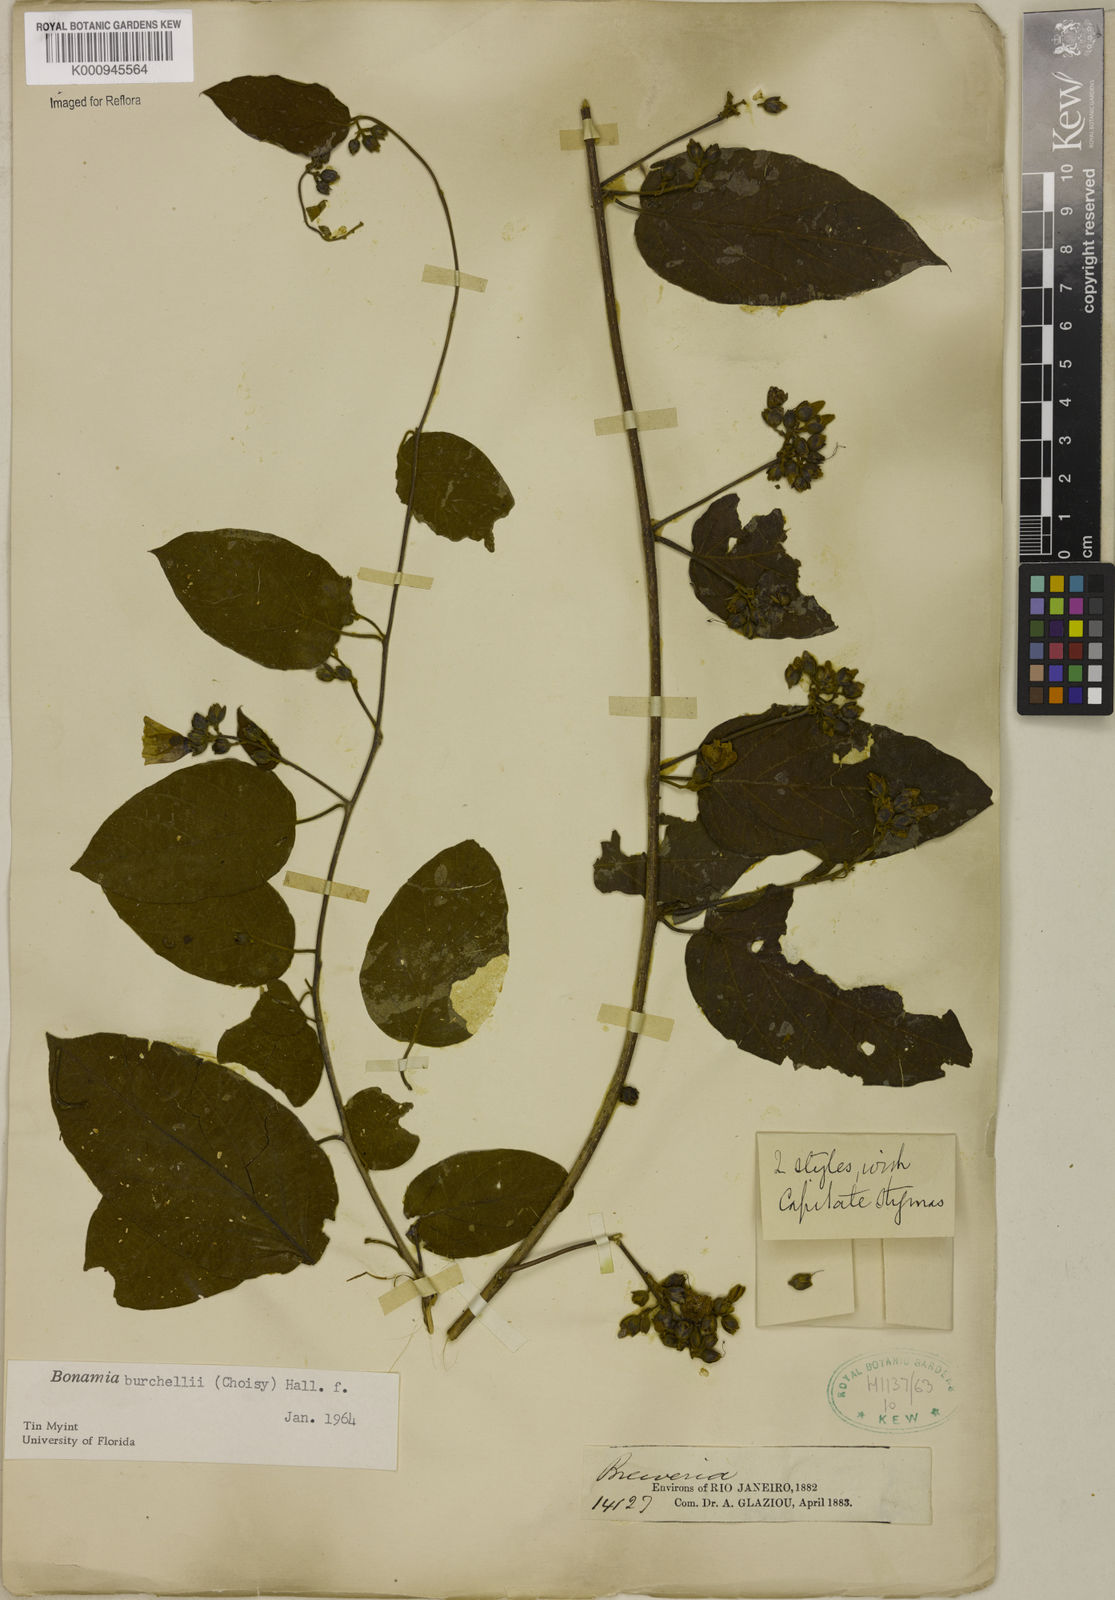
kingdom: Plantae
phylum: Tracheophyta
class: Magnoliopsida
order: Solanales
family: Convolvulaceae
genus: Bonamia
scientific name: Bonamia agrostopolis
